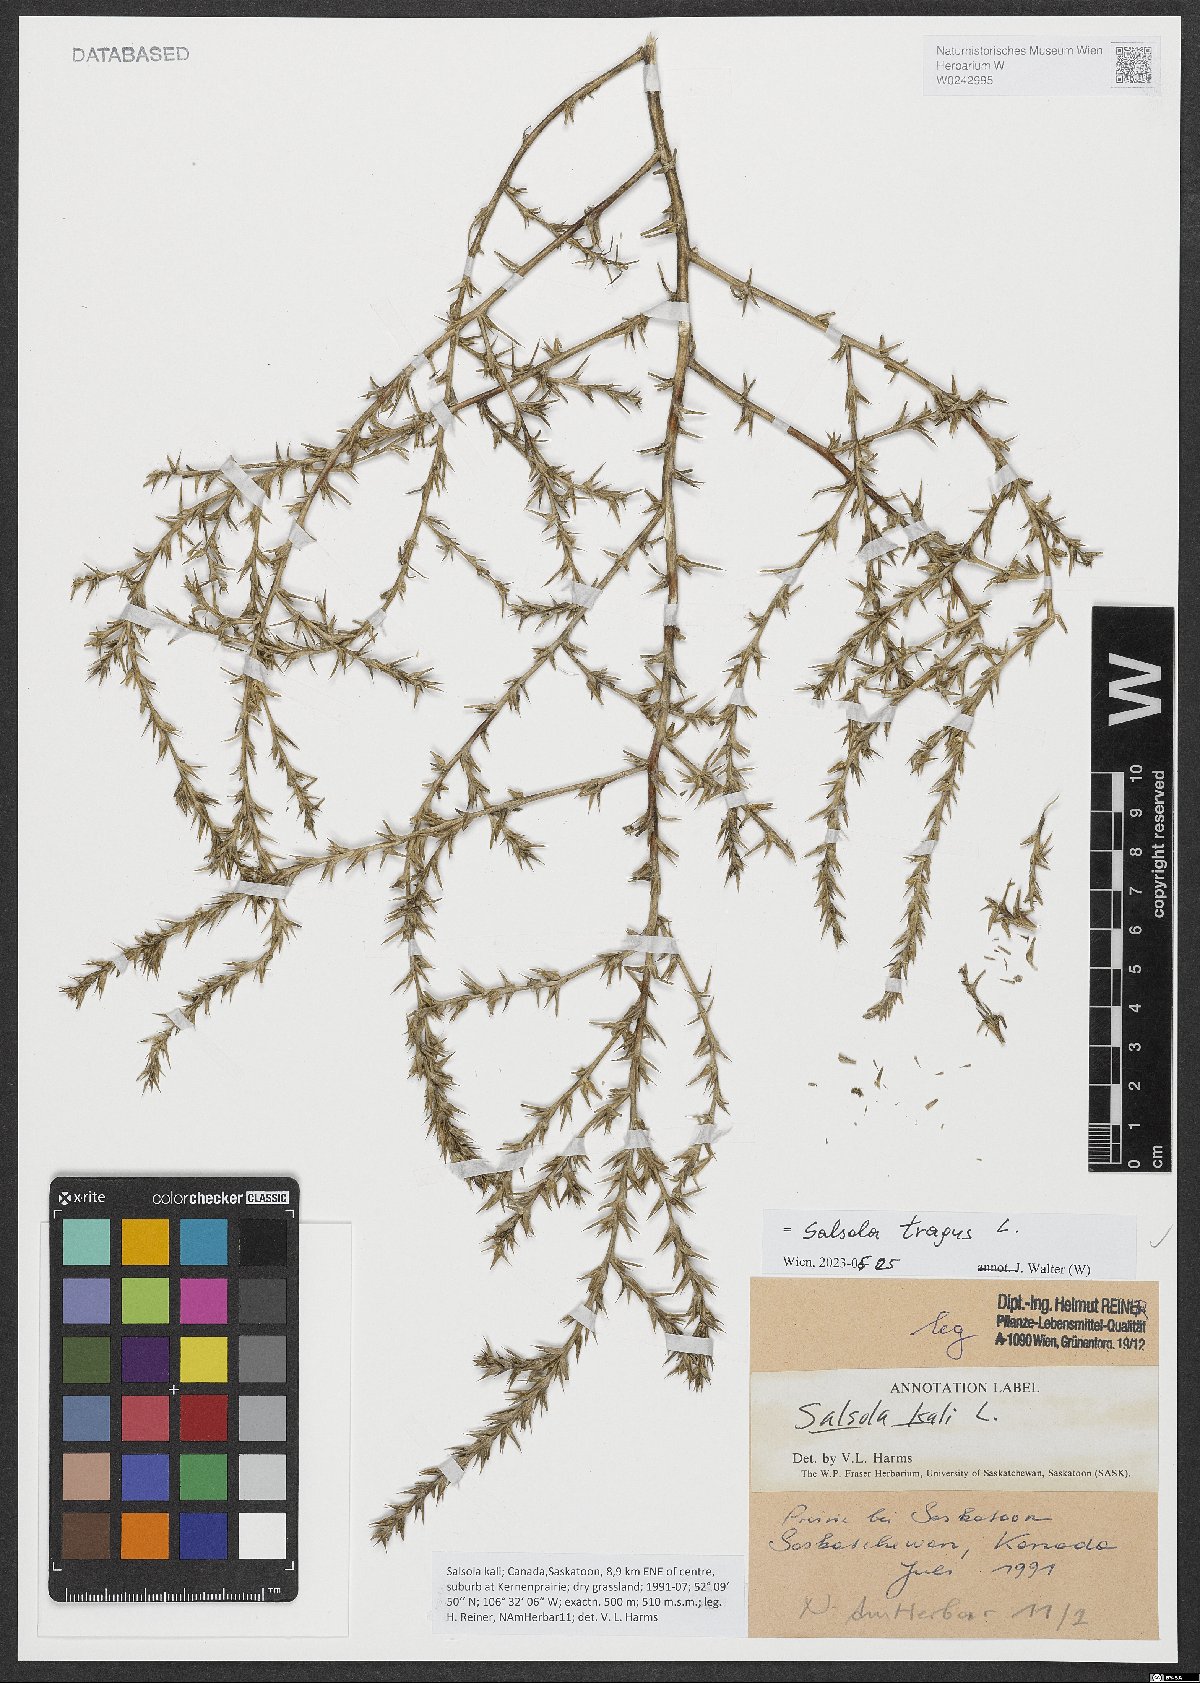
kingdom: Plantae
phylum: Tracheophyta
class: Magnoliopsida
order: Caryophyllales
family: Amaranthaceae
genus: Salsola
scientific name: Salsola tragus
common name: Prickly russian thistle
